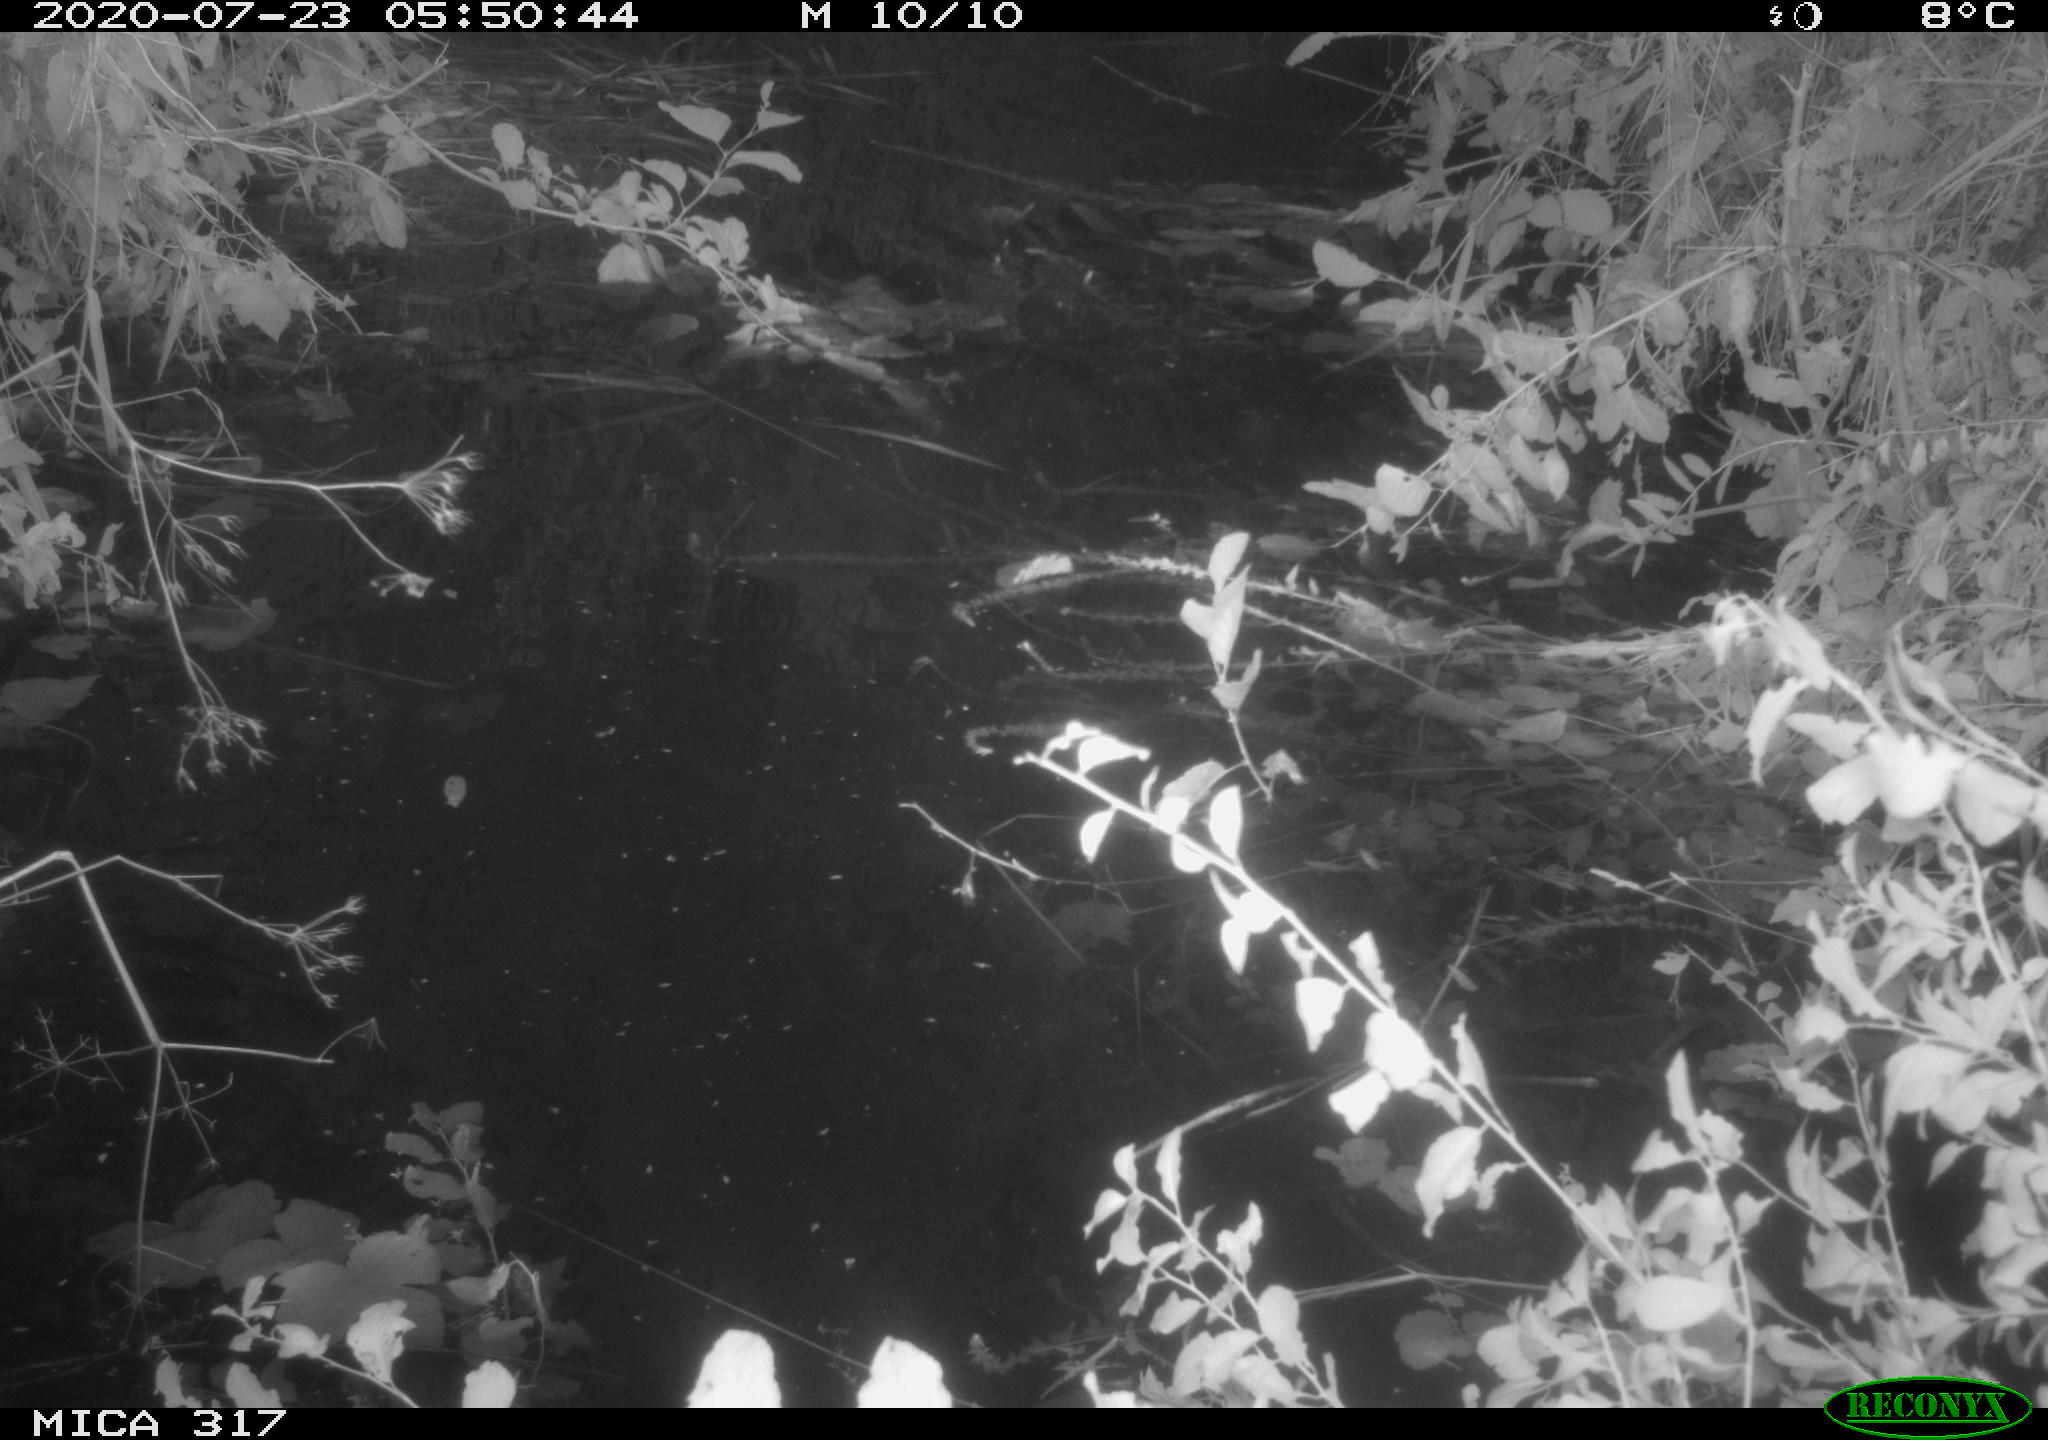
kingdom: Animalia
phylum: Chordata
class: Aves
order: Gruiformes
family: Rallidae
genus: Fulica
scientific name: Fulica atra
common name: Eurasian coot
